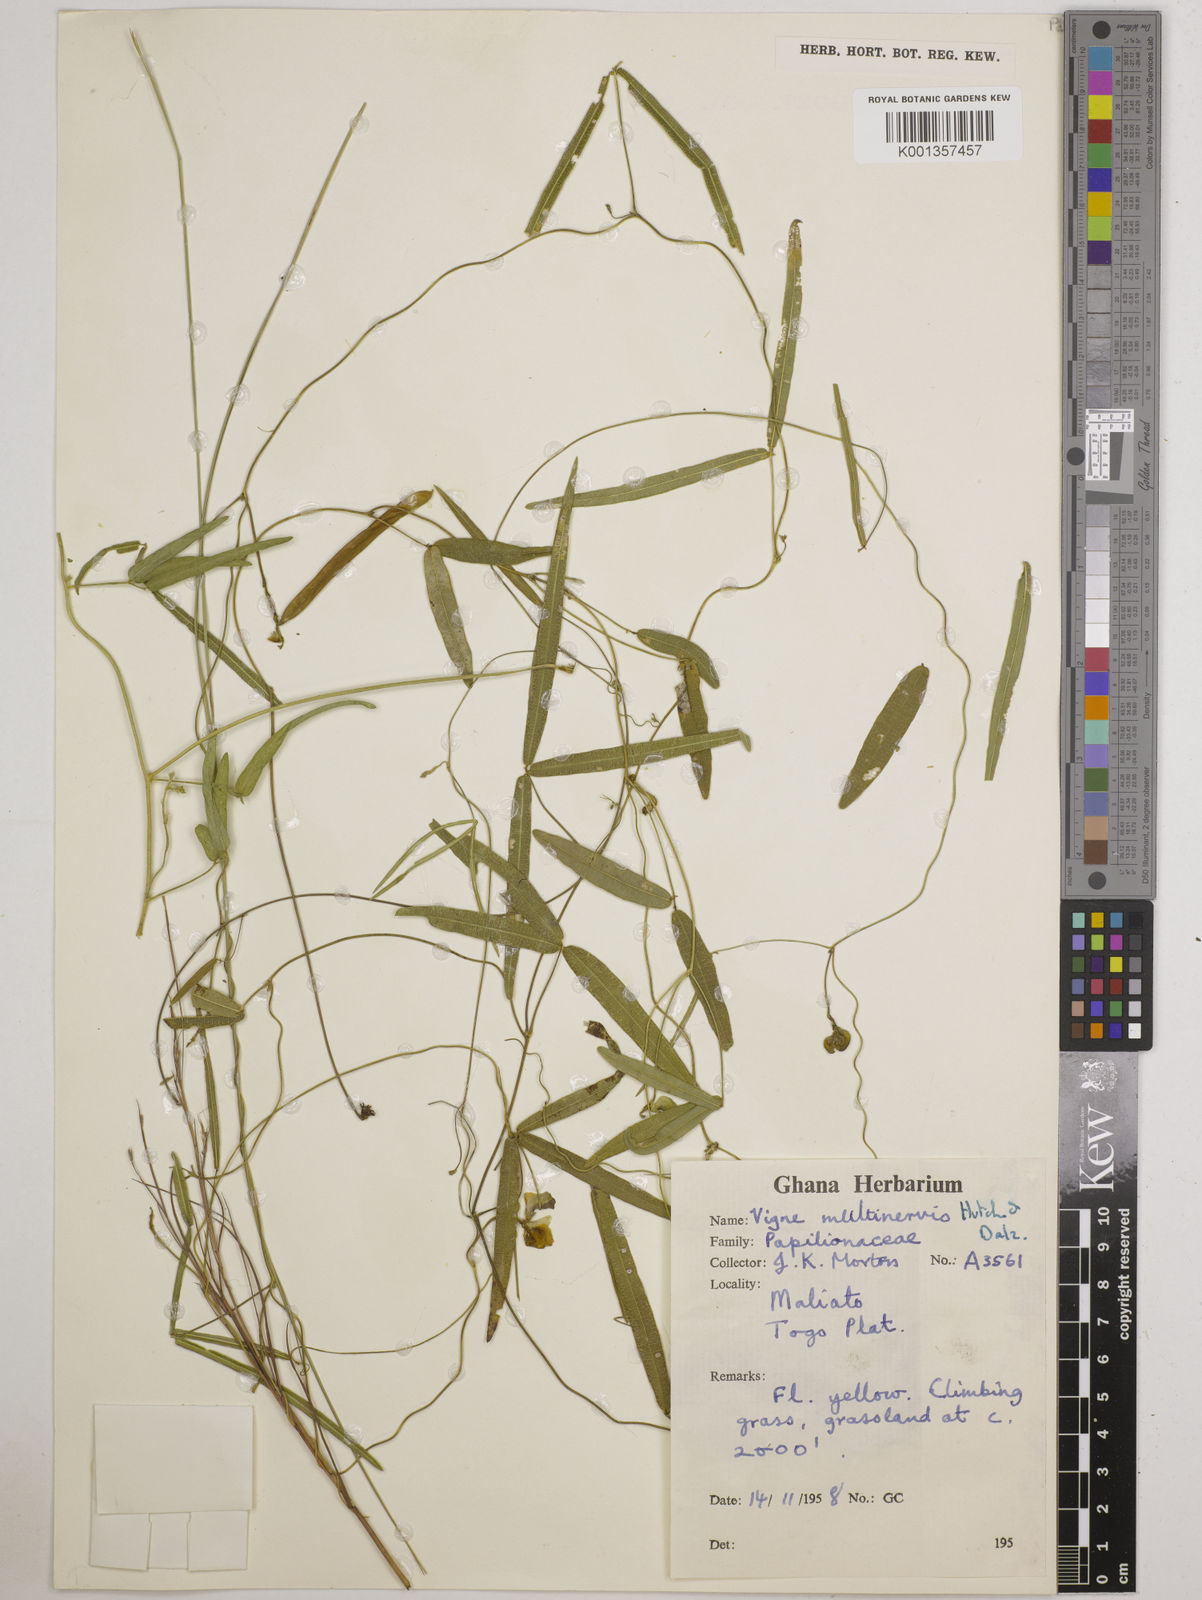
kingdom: Plantae
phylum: Tracheophyta
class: Magnoliopsida
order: Fabales
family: Fabaceae
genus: Vigna
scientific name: Vigna multinervis
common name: Fula-pulaar
